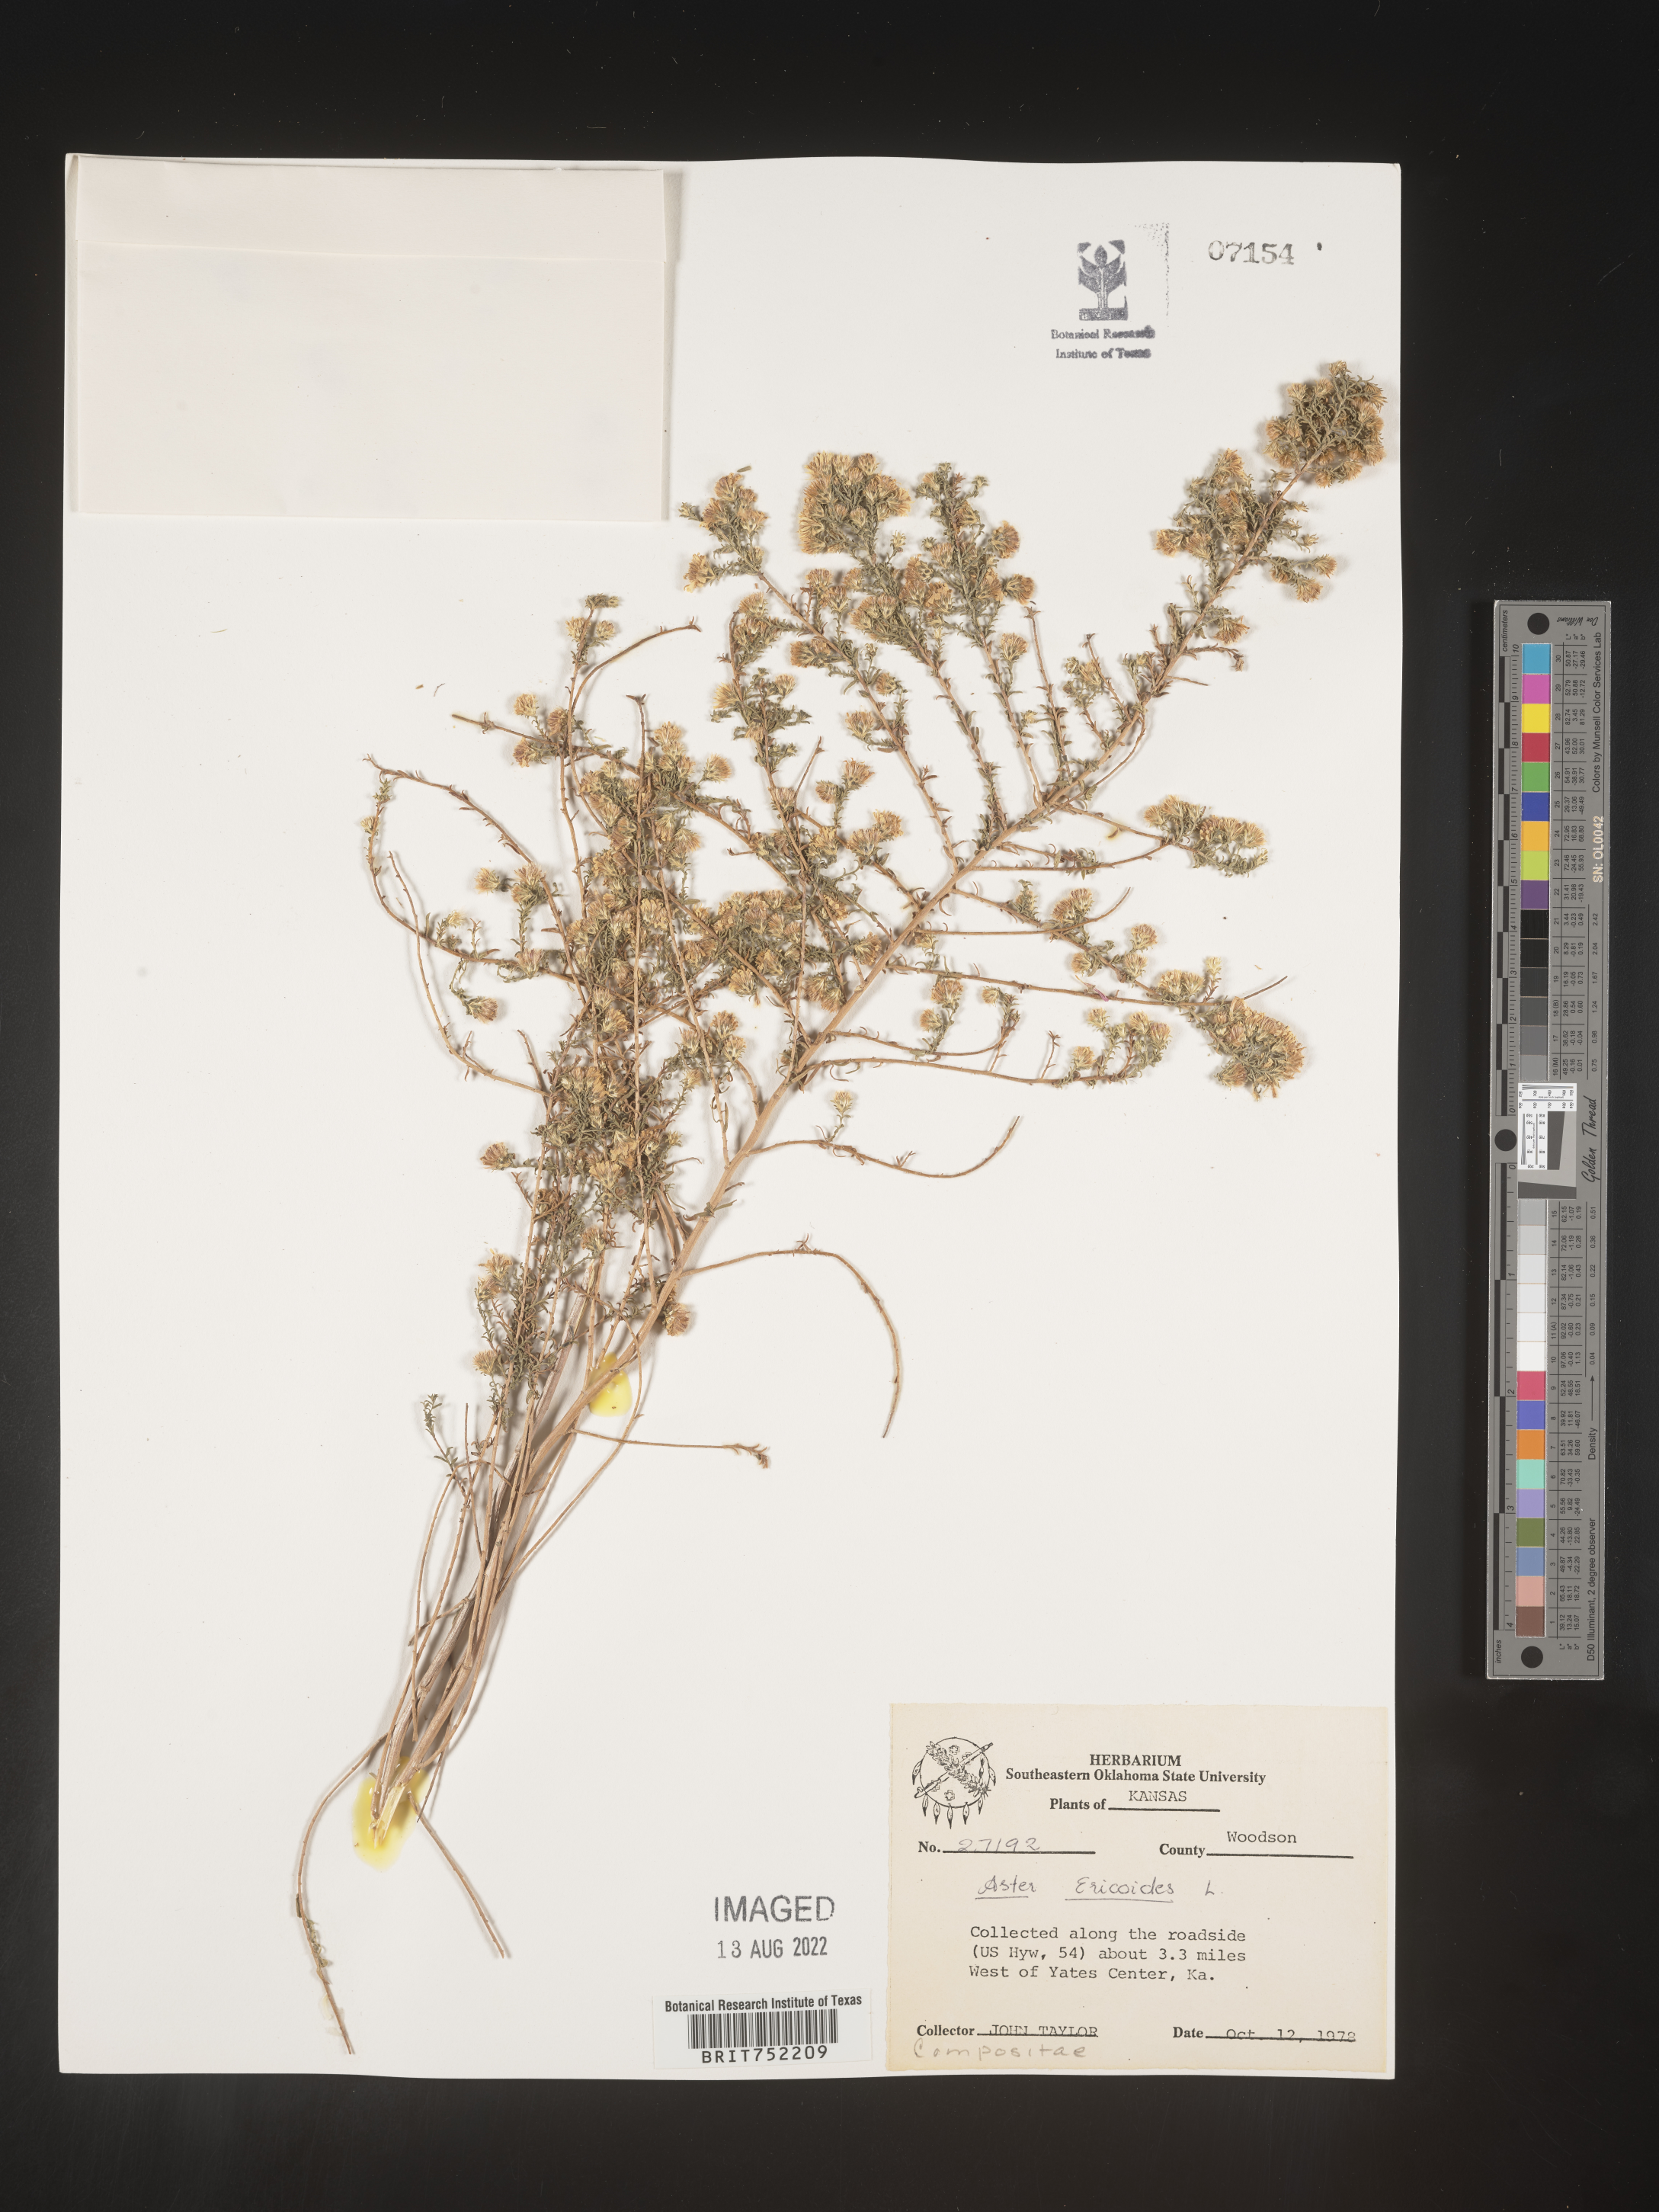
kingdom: Plantae
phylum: Tracheophyta
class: Magnoliopsida
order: Asterales
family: Asteraceae
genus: Symphyotrichum
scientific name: Symphyotrichum ericoides
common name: Heath aster
